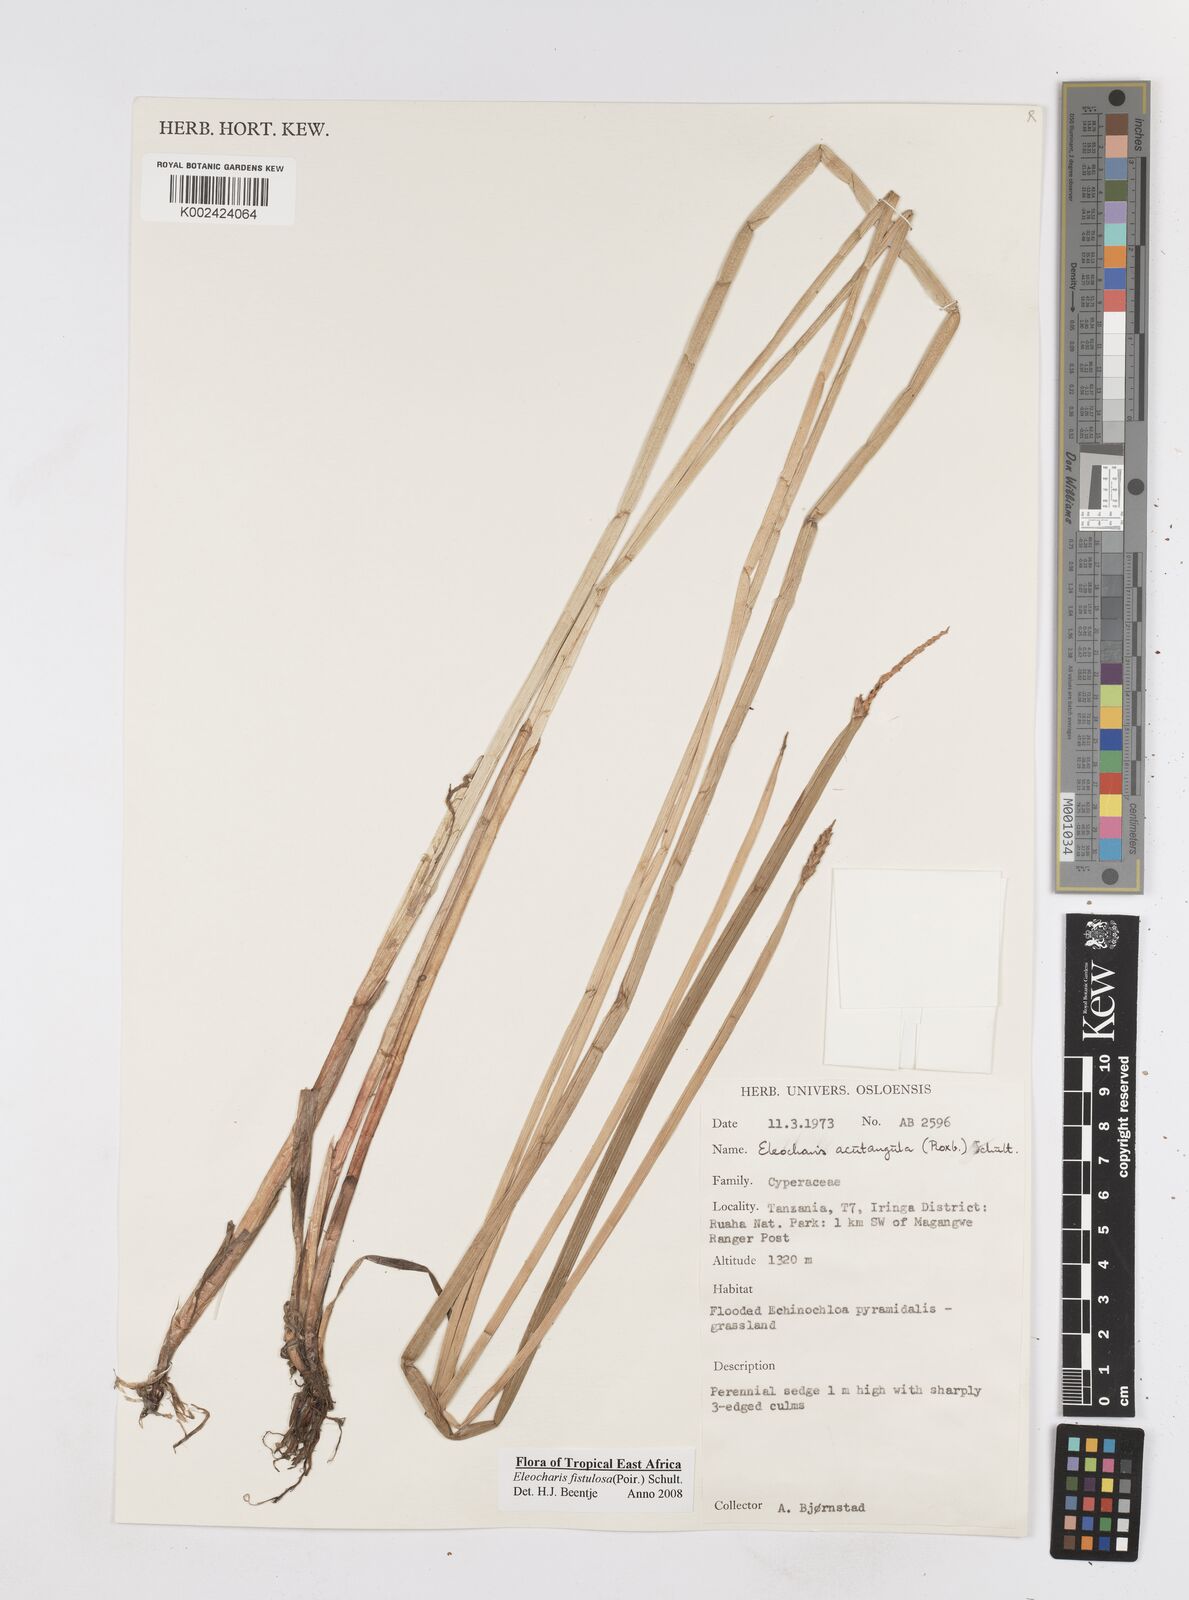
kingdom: Plantae
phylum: Tracheophyta
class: Liliopsida
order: Poales
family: Cyperaceae
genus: Eleocharis
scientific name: Eleocharis acutangula
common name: Acute spikerush
